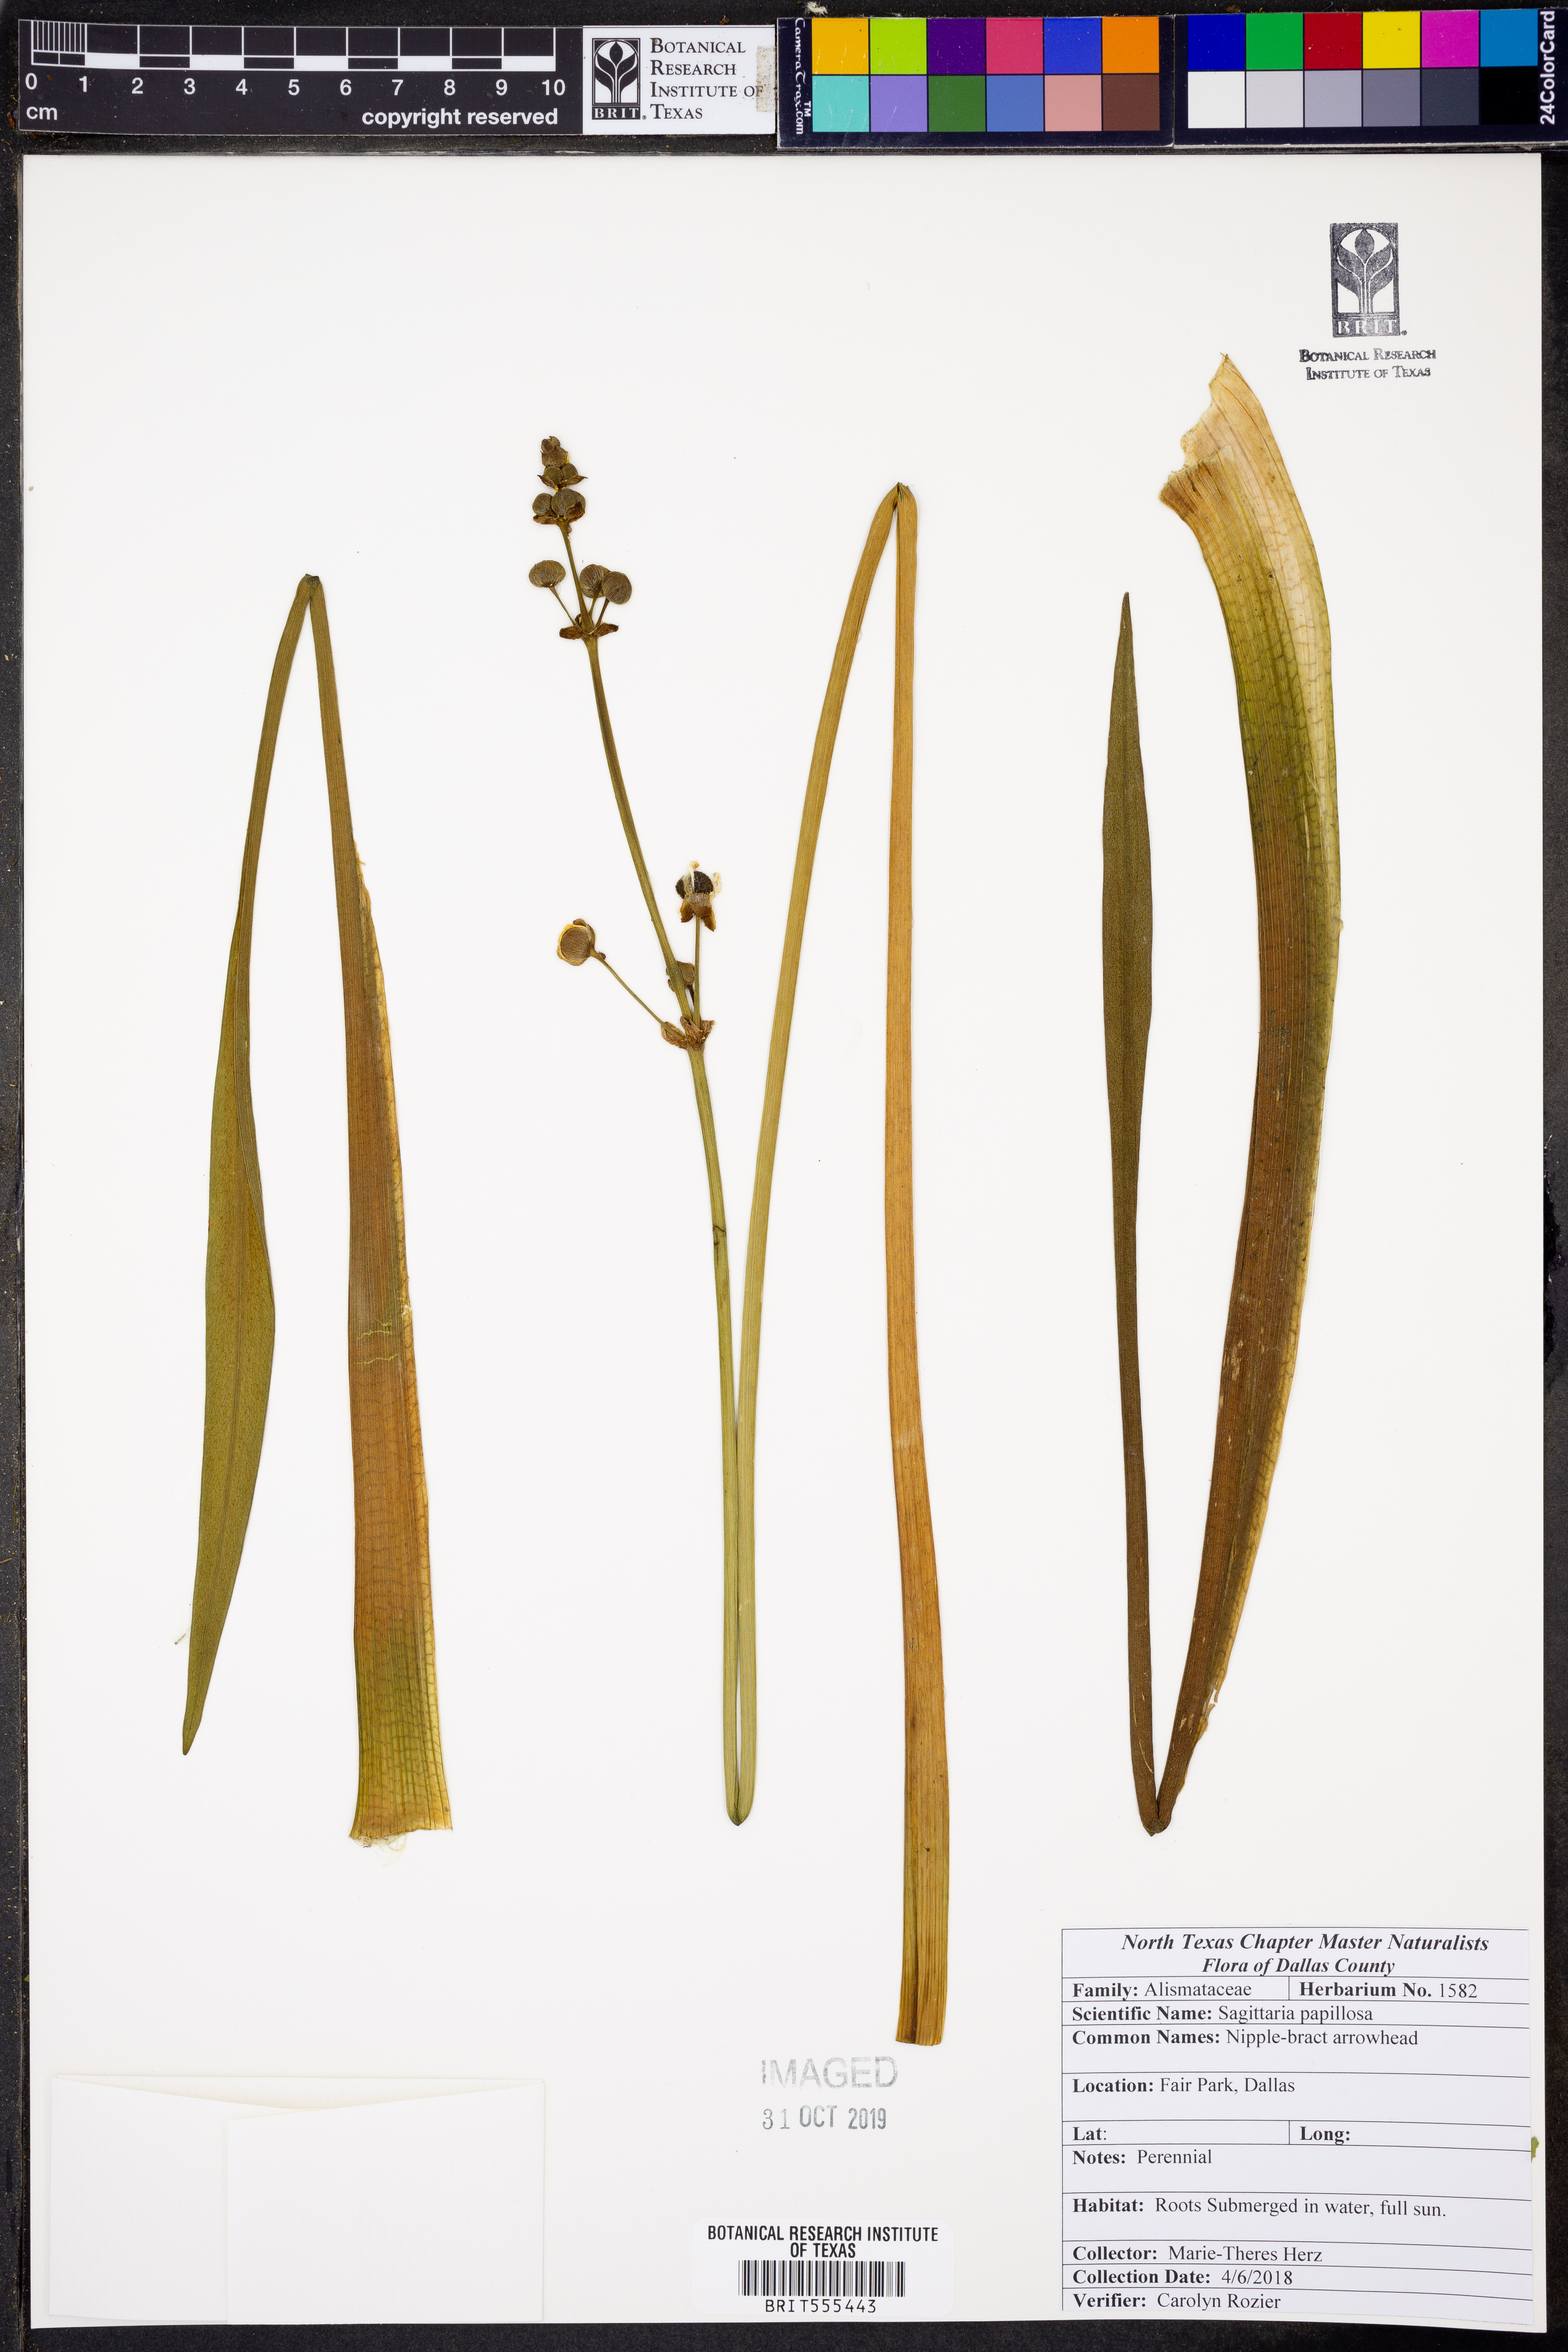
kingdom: Plantae
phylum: Tracheophyta
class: Liliopsida
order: Alismatales
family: Alismataceae
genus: Sagittaria
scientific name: Sagittaria papillosa
